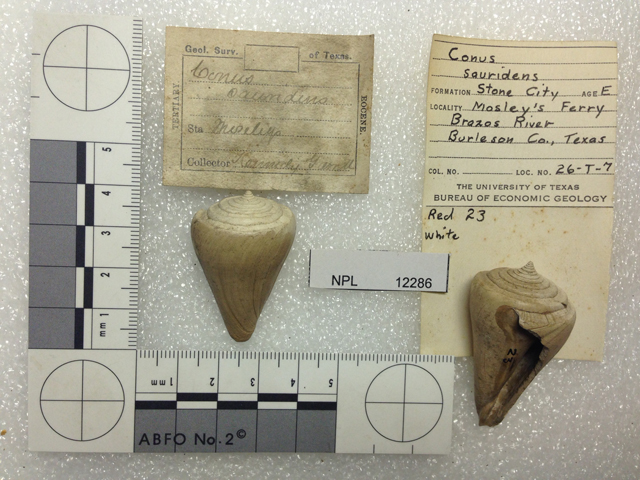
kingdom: Animalia
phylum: Mollusca
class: Gastropoda
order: Neogastropoda
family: Conidae
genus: Eoconus
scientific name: Eoconus sauridens
